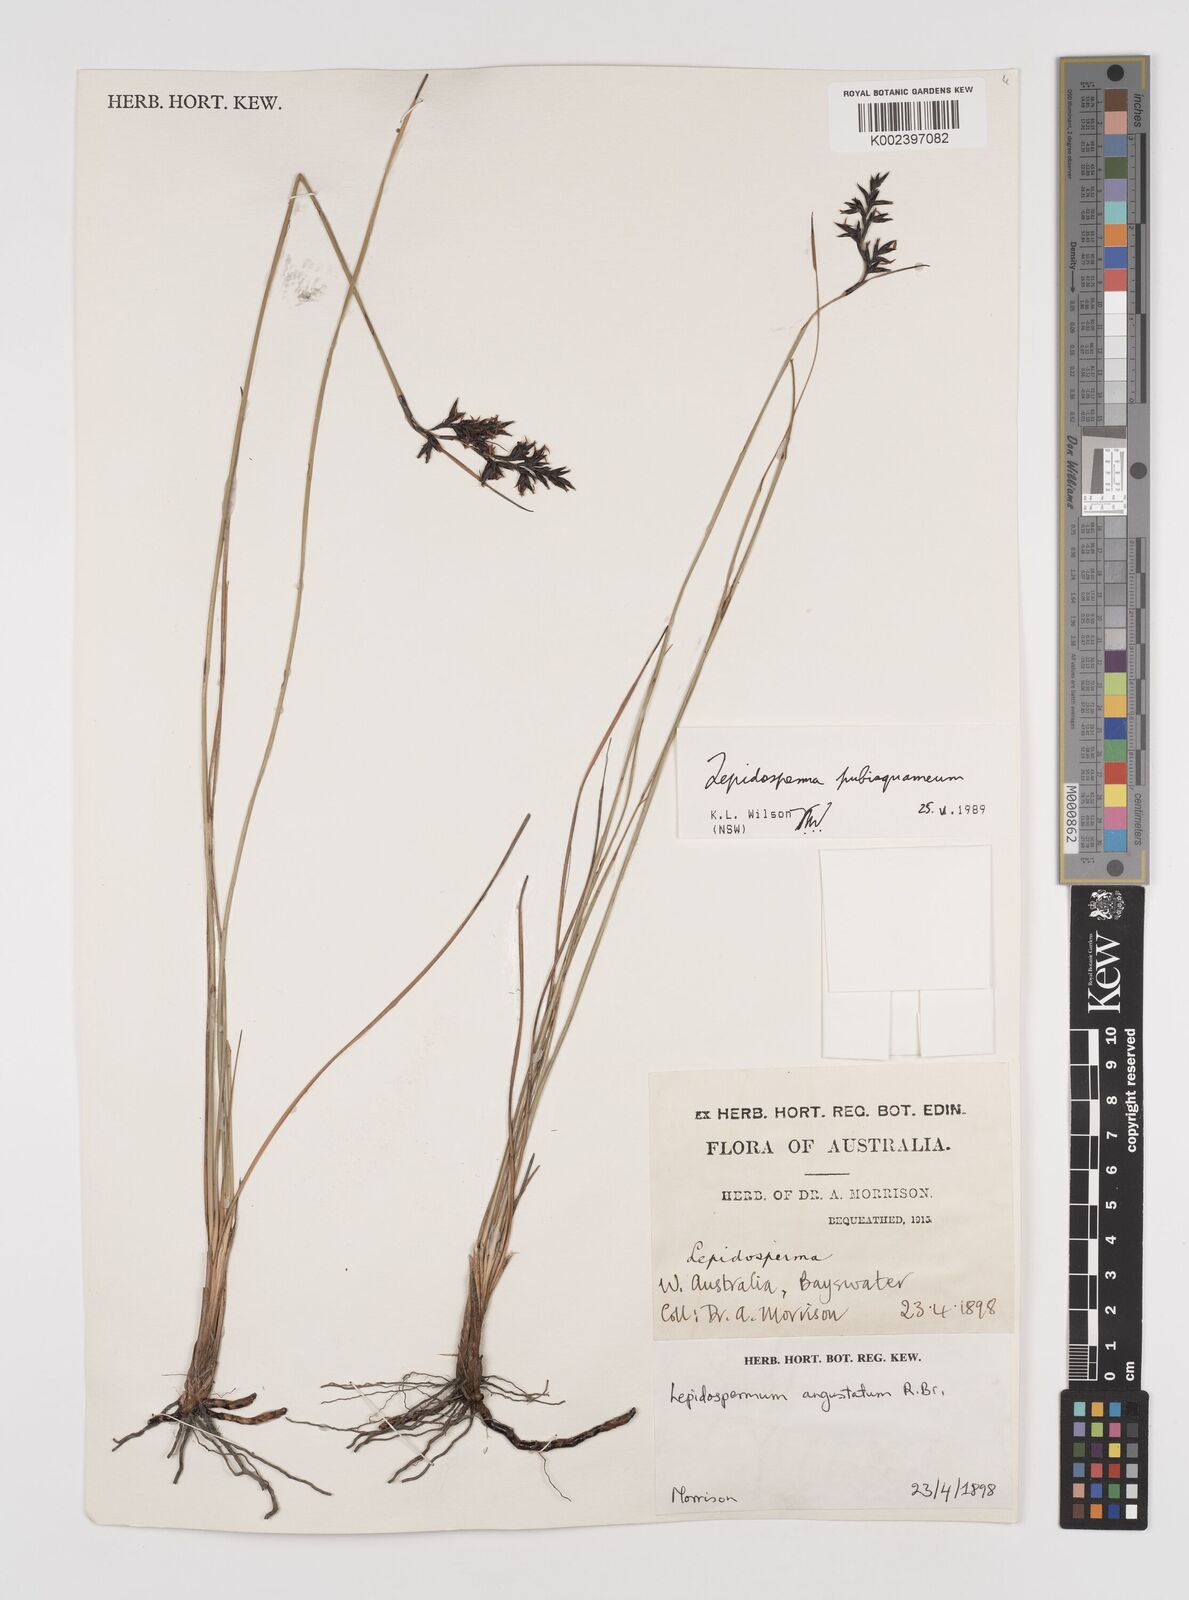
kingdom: Plantae
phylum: Tracheophyta
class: Liliopsida
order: Poales
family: Cyperaceae
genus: Lepidosperma
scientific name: Lepidosperma pubisquameum
